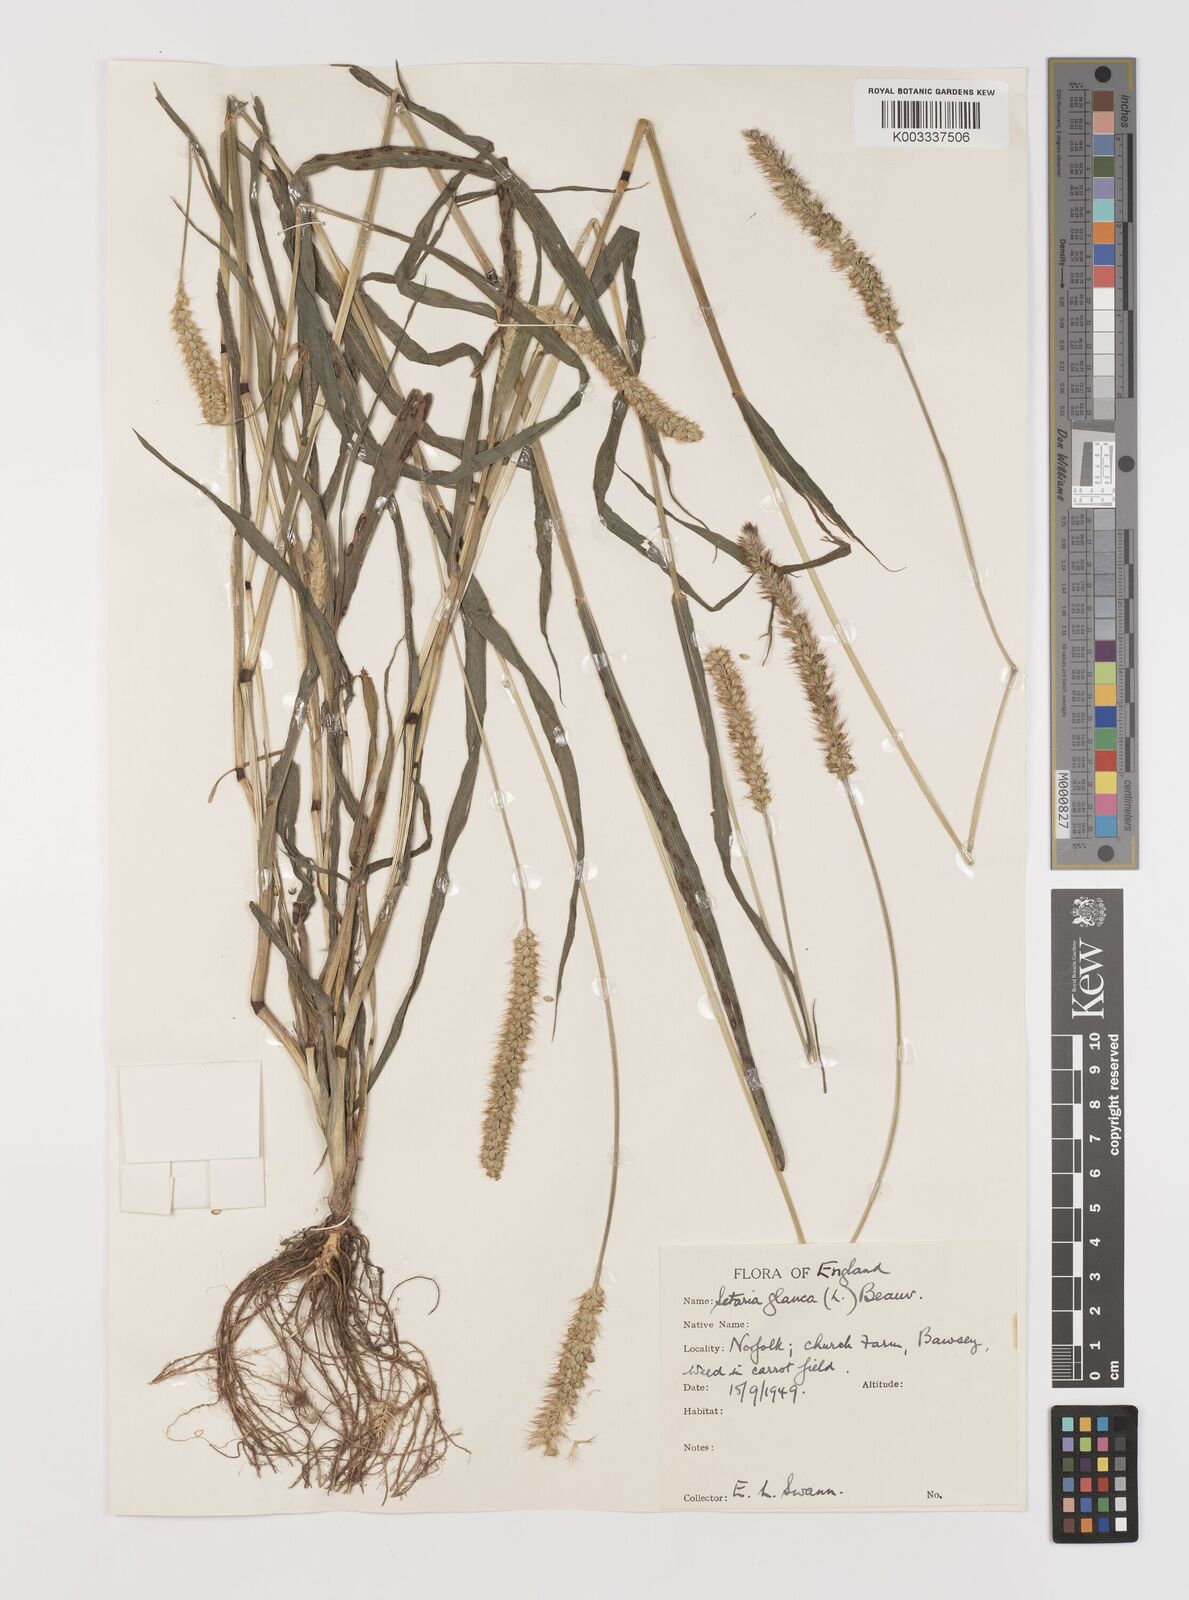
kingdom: Plantae
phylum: Tracheophyta
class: Liliopsida
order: Poales
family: Poaceae
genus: Setaria
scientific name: Setaria pumila
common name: Yellow bristle-grass
